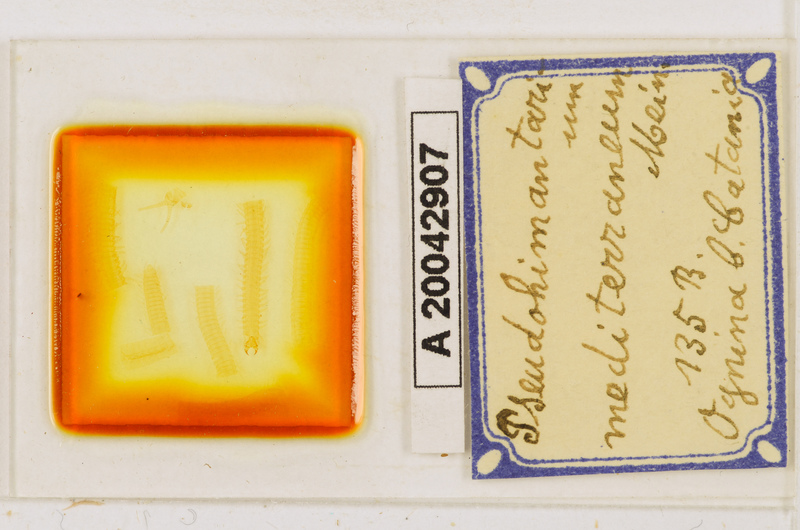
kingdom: Animalia
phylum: Arthropoda
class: Chilopoda
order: Geophilomorpha
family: Himantariidae
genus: Himantarium
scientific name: Himantarium
